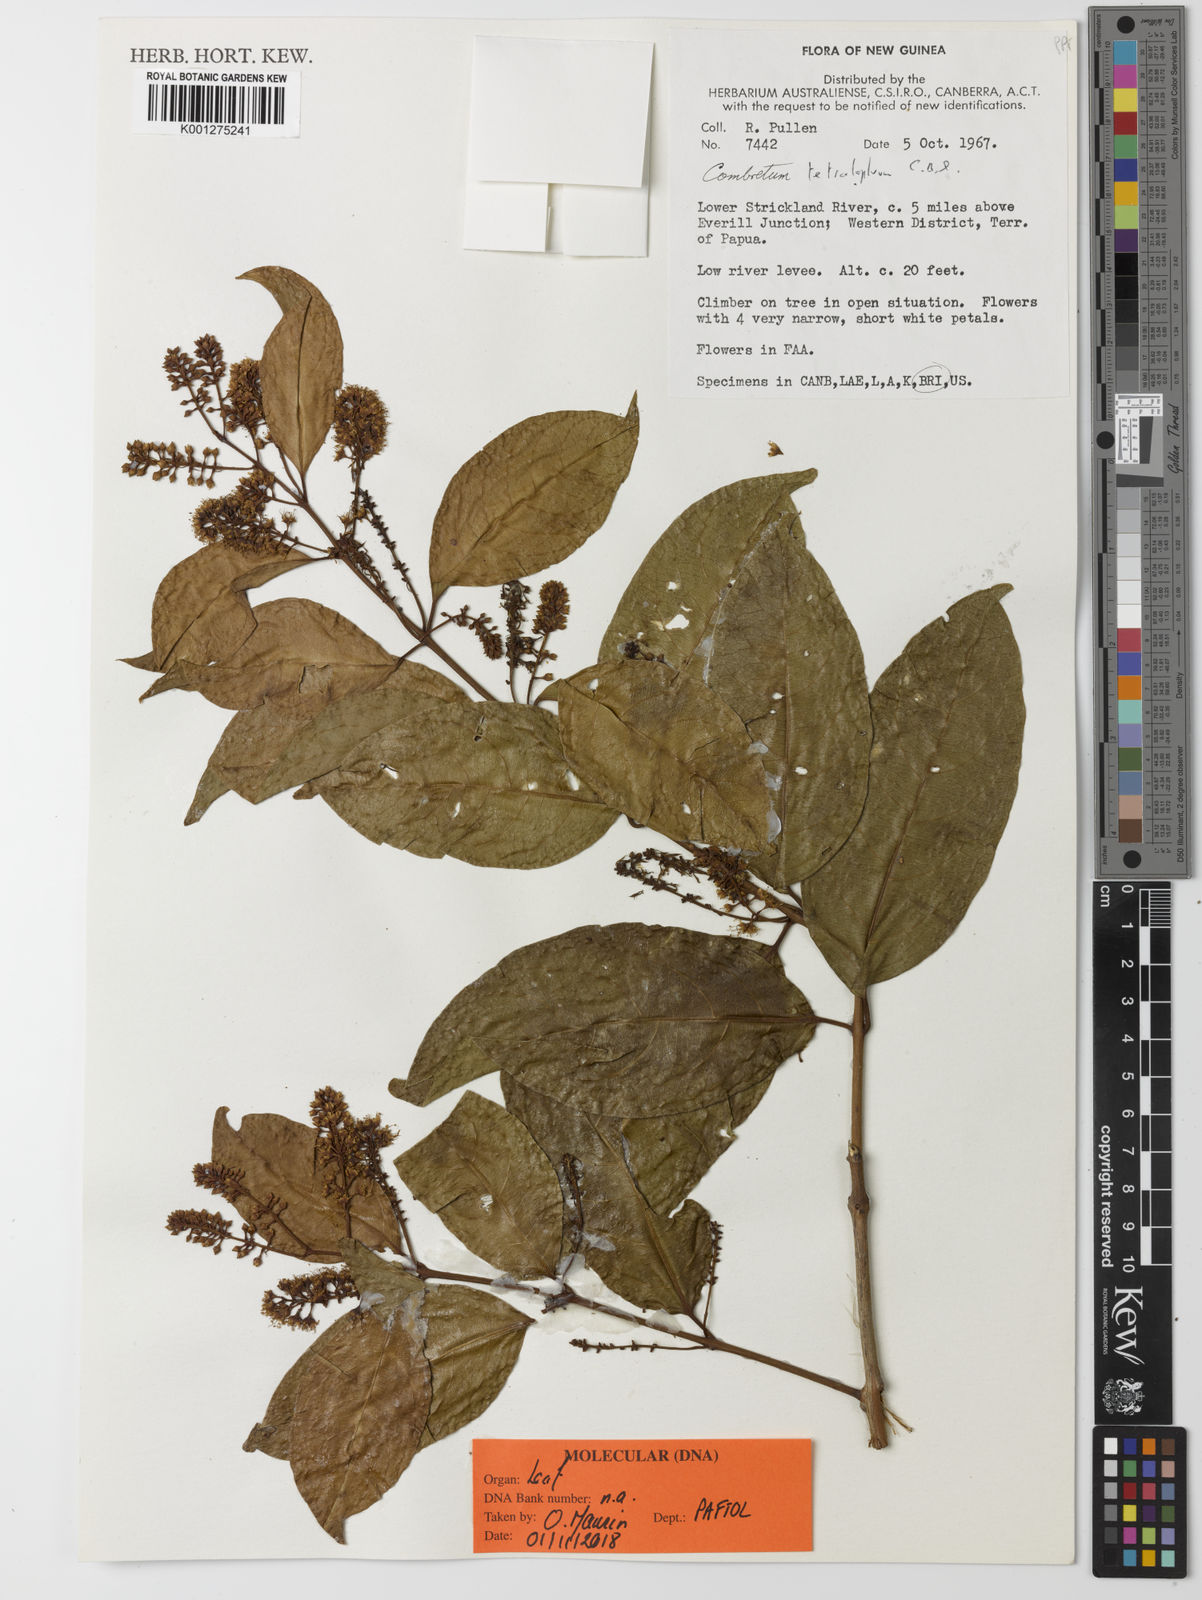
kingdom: Plantae
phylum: Tracheophyta
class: Magnoliopsida
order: Myrtales
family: Combretaceae
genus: Combretum
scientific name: Combretum tetralophum
